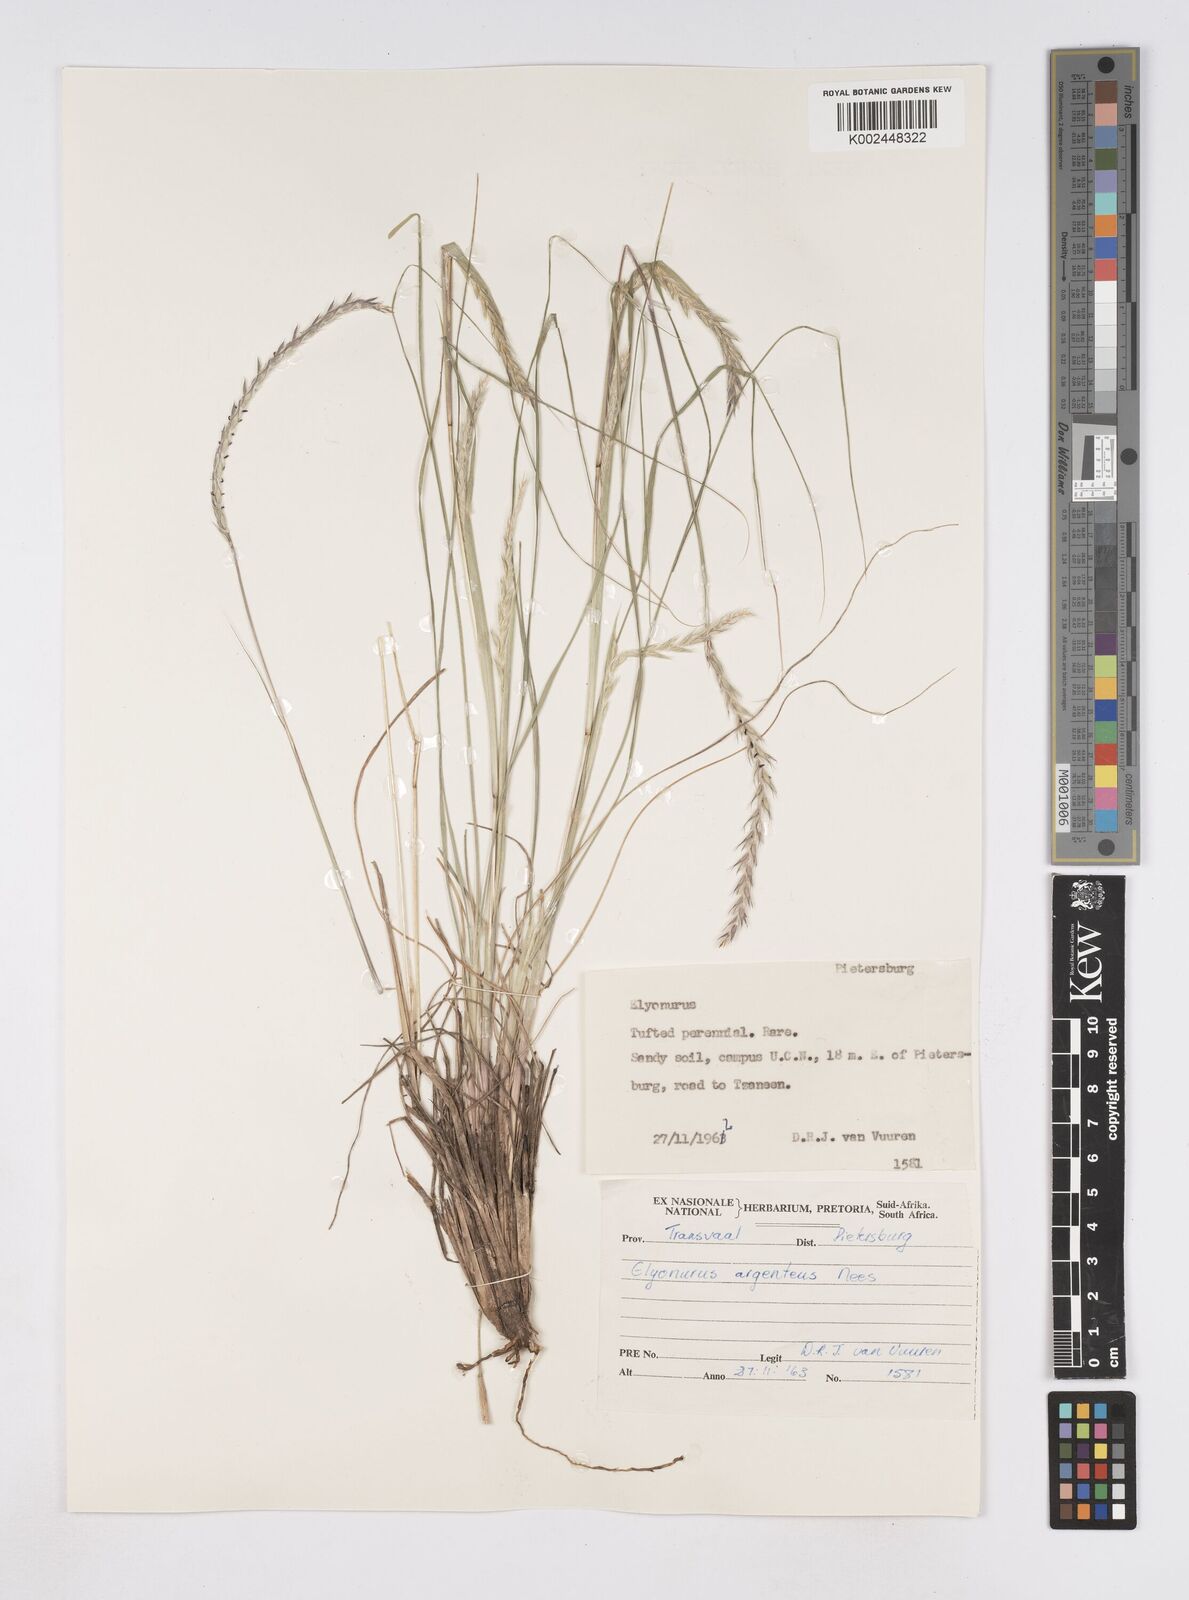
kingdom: Plantae
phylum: Tracheophyta
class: Liliopsida
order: Poales
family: Poaceae
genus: Elionurus
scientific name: Elionurus muticus
